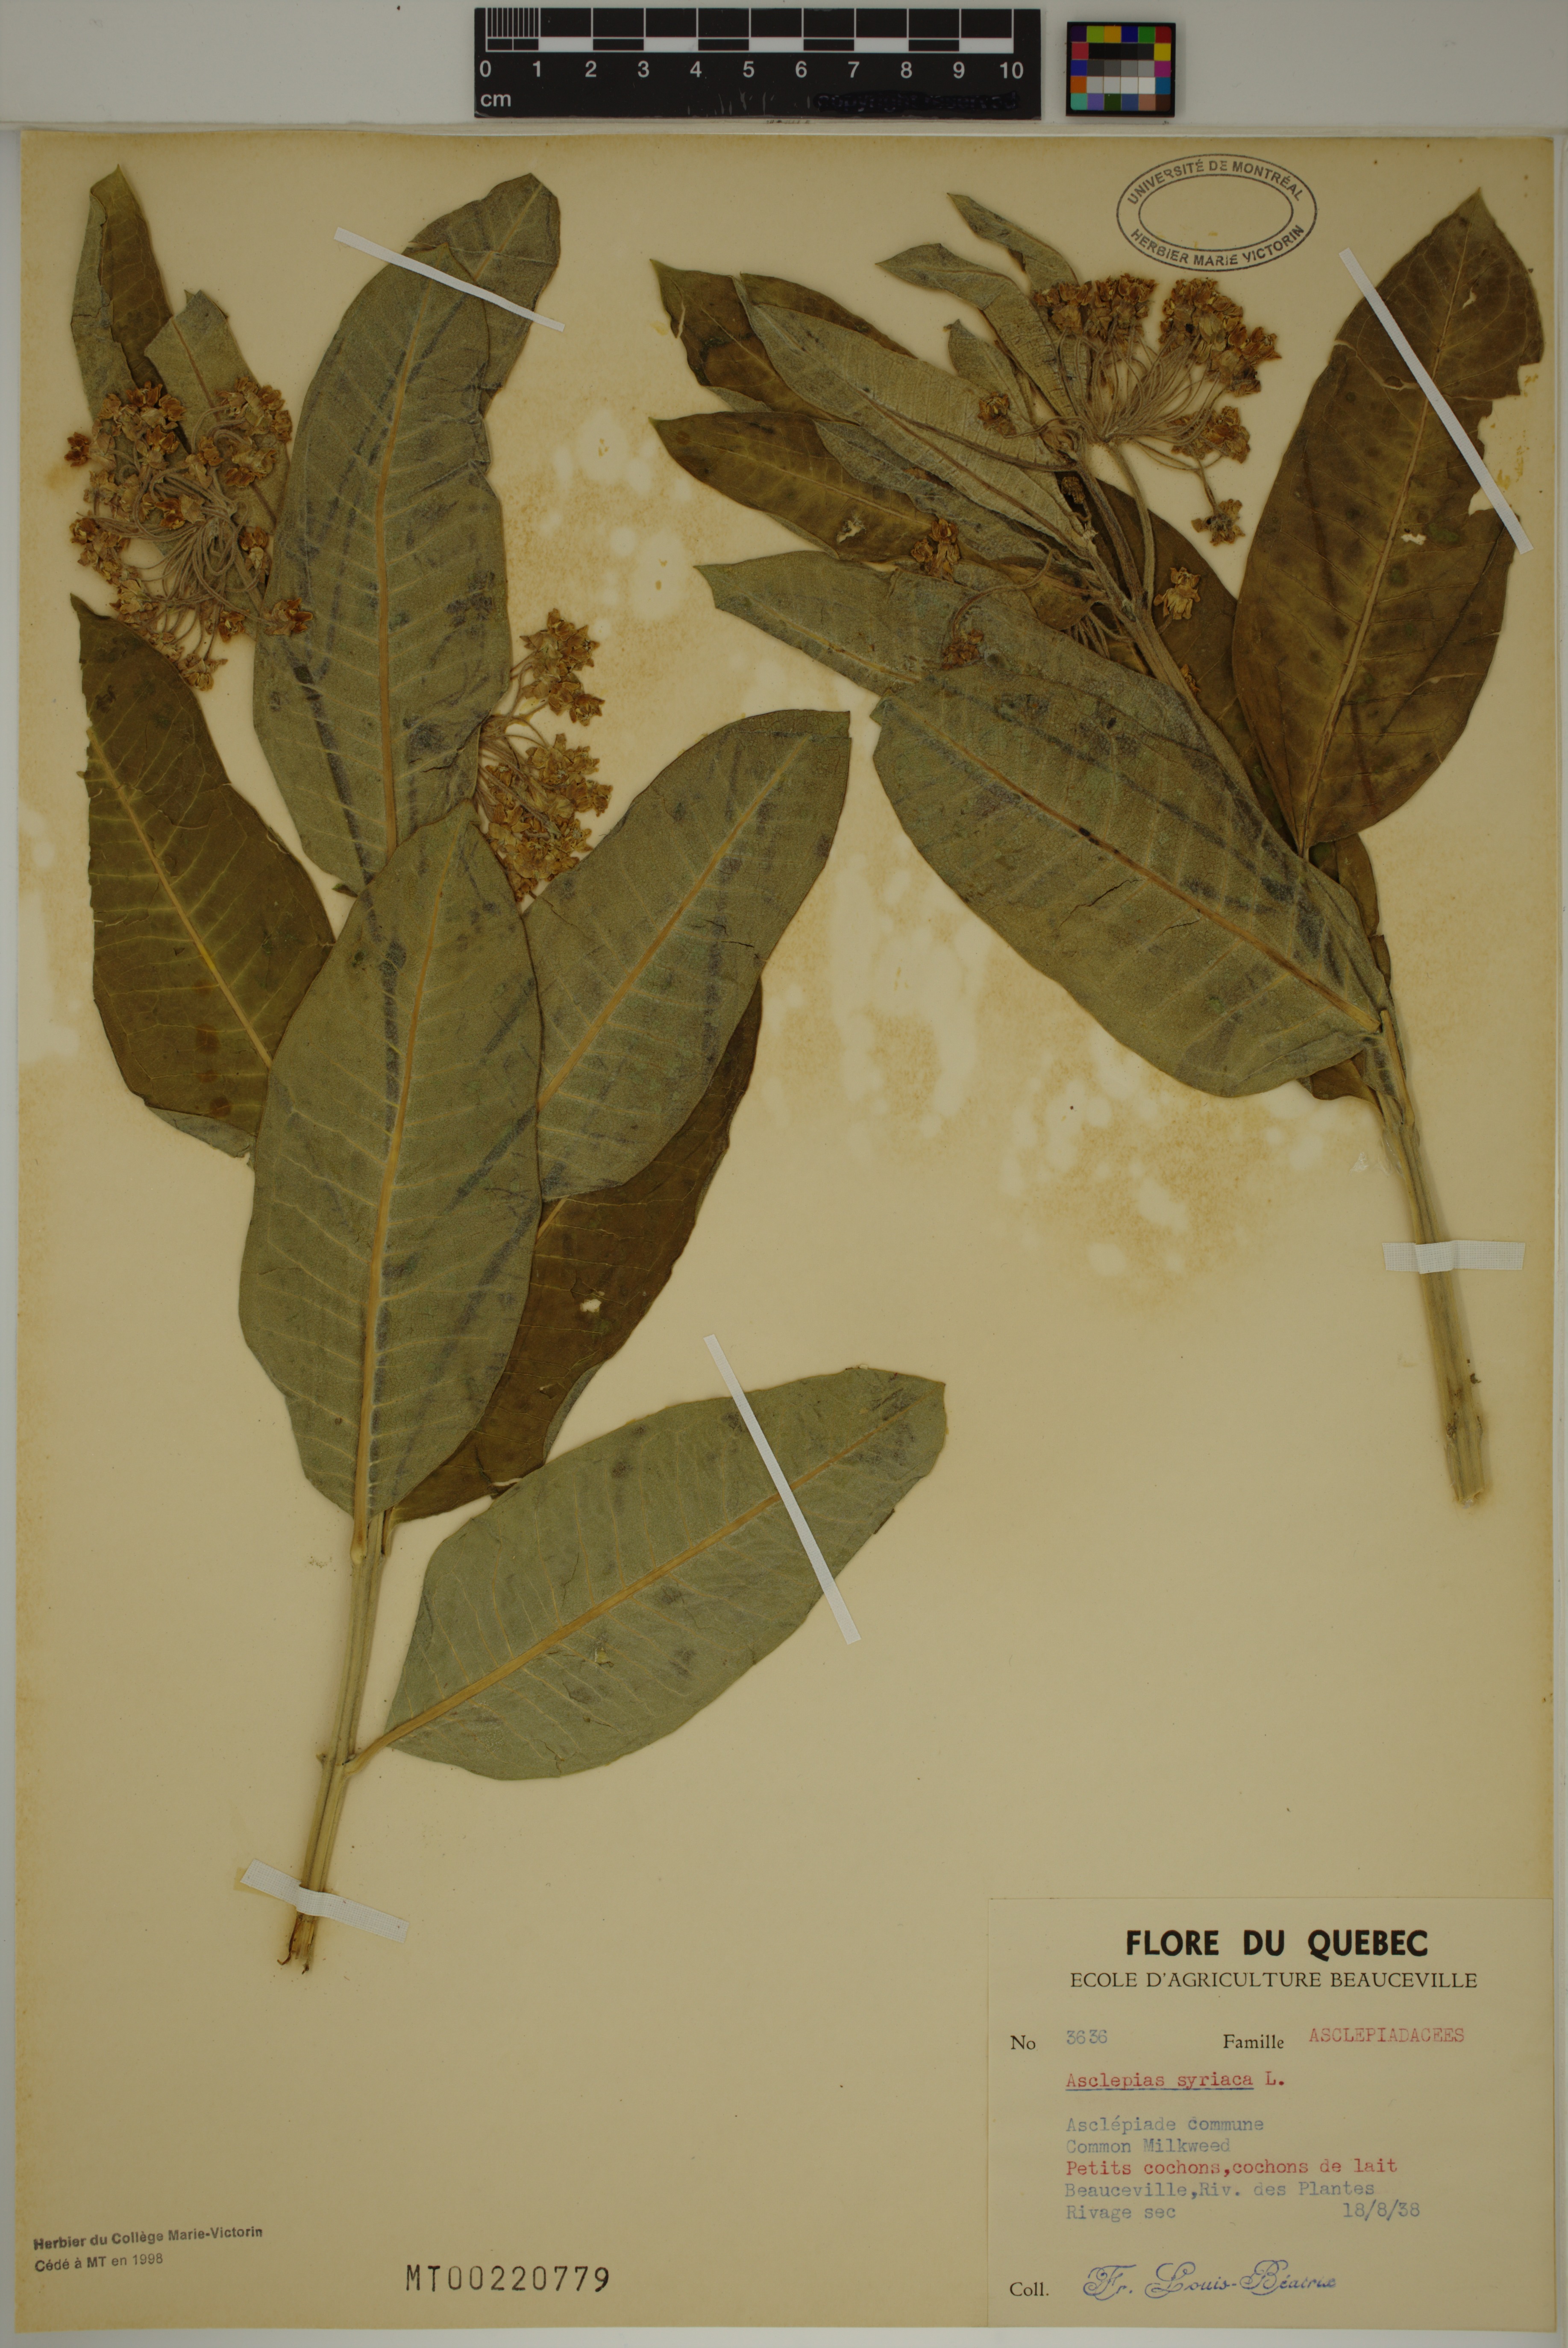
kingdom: Plantae
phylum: Tracheophyta
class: Magnoliopsida
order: Gentianales
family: Apocynaceae
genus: Asclepias
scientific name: Asclepias syriaca
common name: Common milkweed
